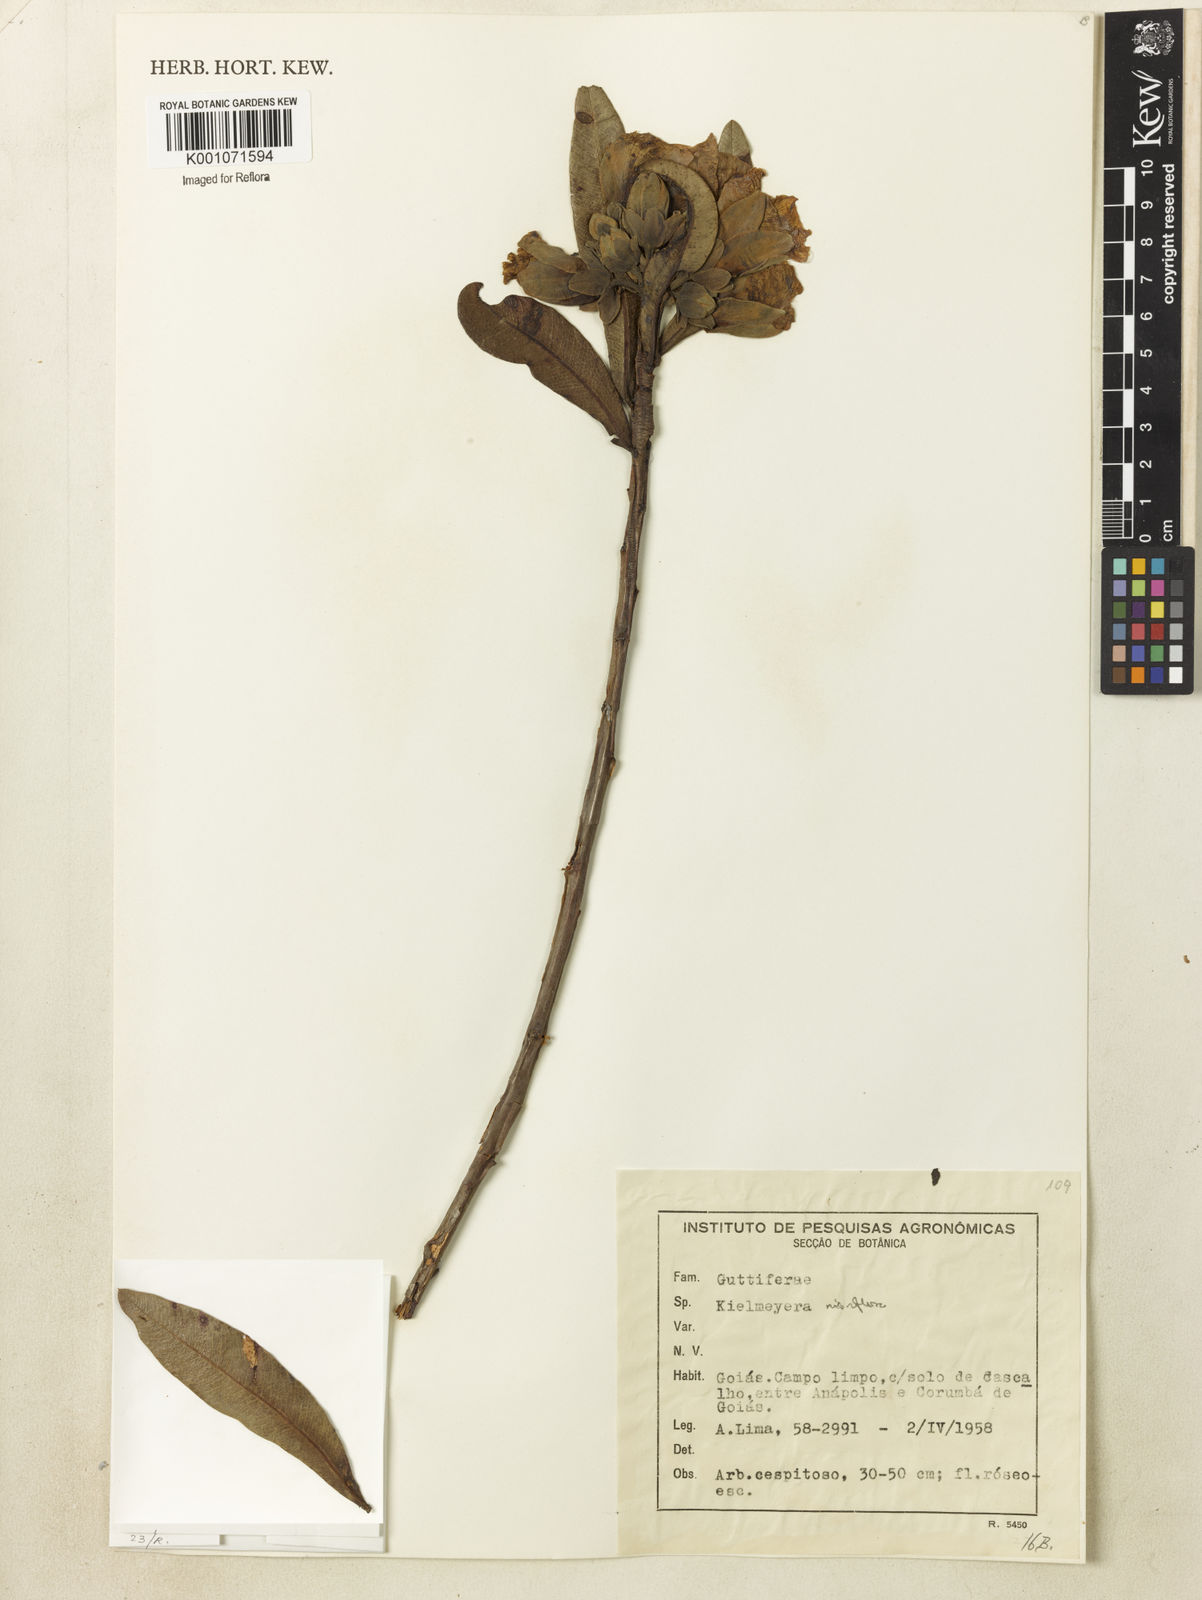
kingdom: Plantae
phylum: Tracheophyta
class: Magnoliopsida
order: Malpighiales
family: Calophyllaceae
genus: Kielmeyera
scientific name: Kielmeyera rubriflora
